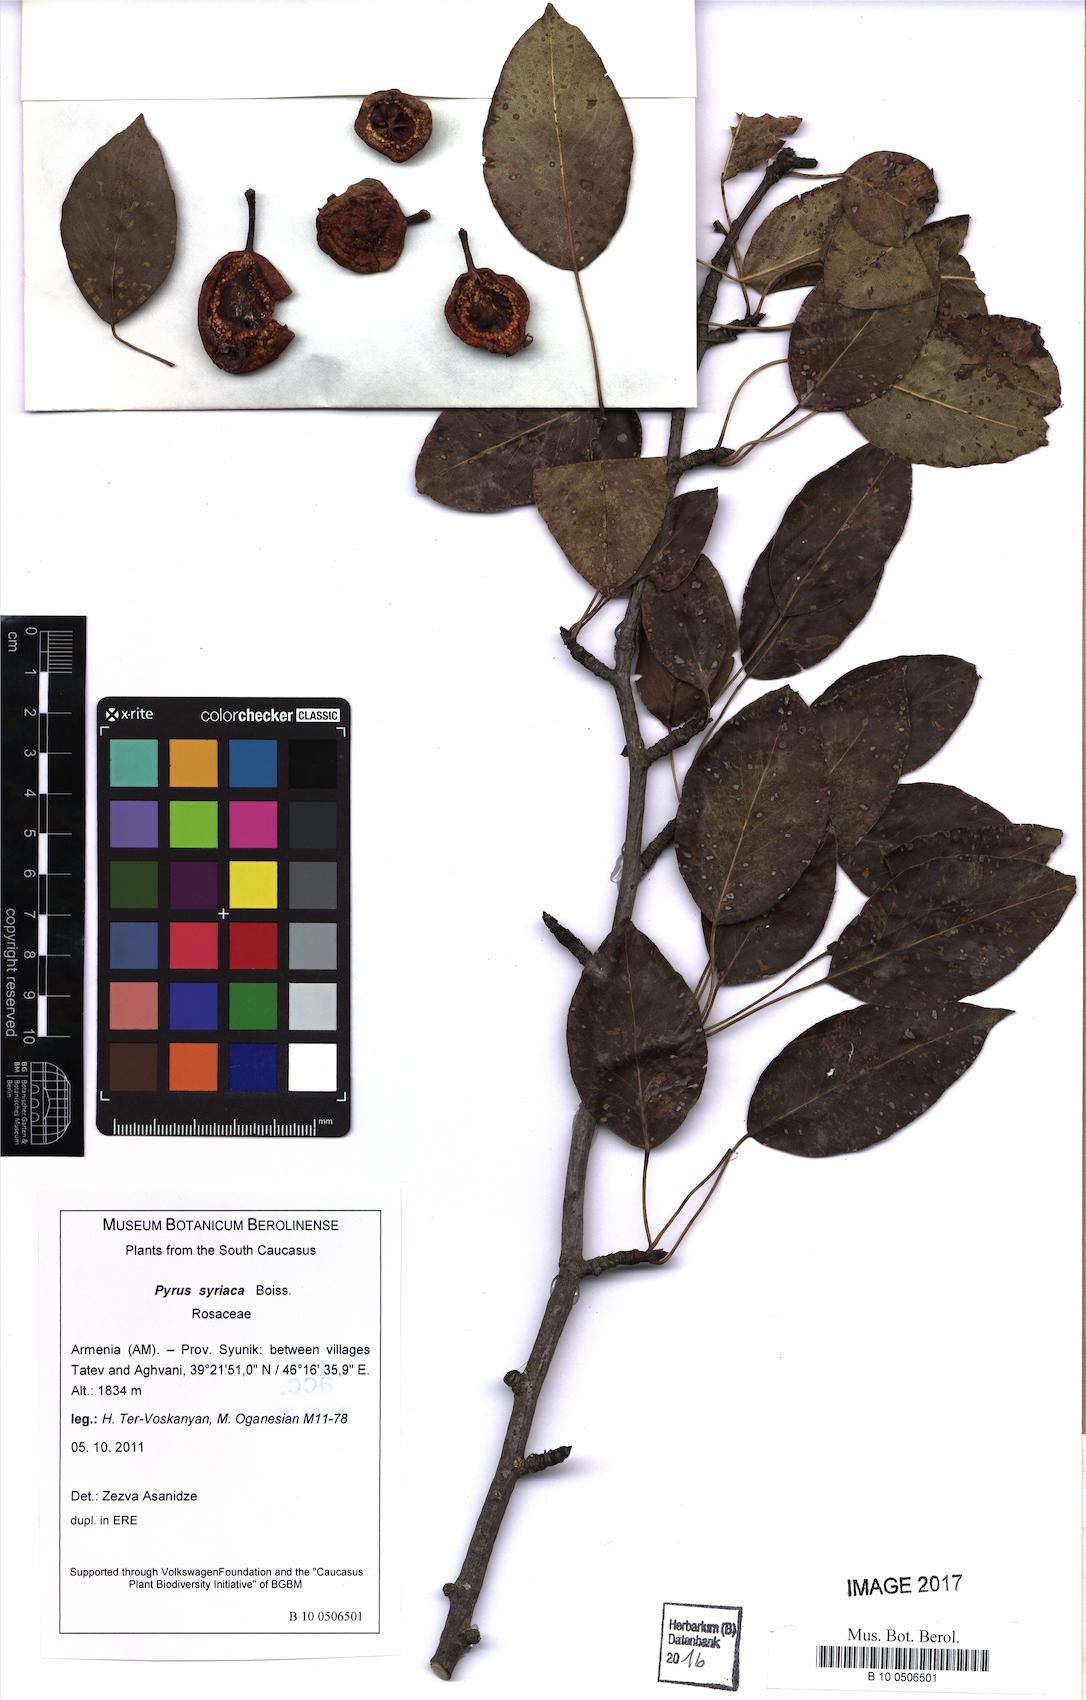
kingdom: Plantae
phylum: Tracheophyta
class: Magnoliopsida
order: Rosales
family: Rosaceae
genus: Pyrus
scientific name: Pyrus syriaca
